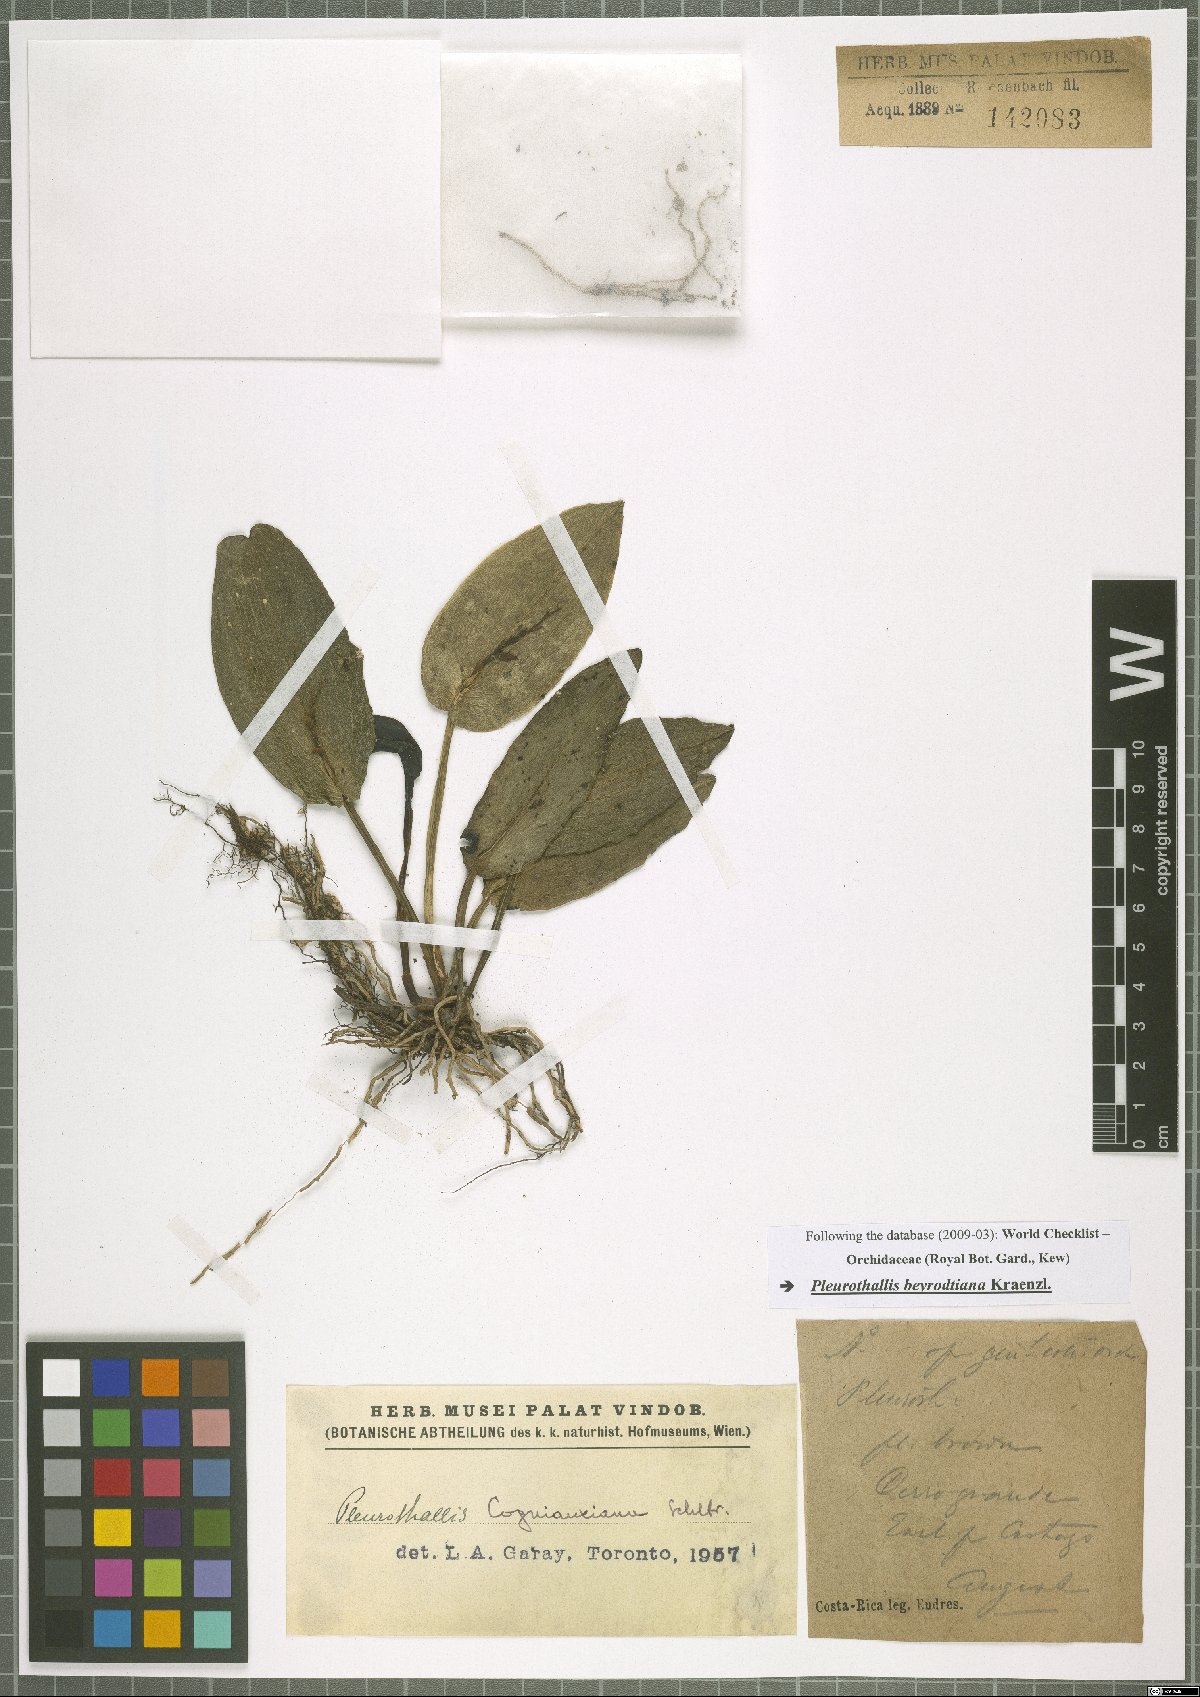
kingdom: Plantae
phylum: Tracheophyta
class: Liliopsida
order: Asparagales
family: Orchidaceae
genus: Acianthera
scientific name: Acianthera beyrodtiana
